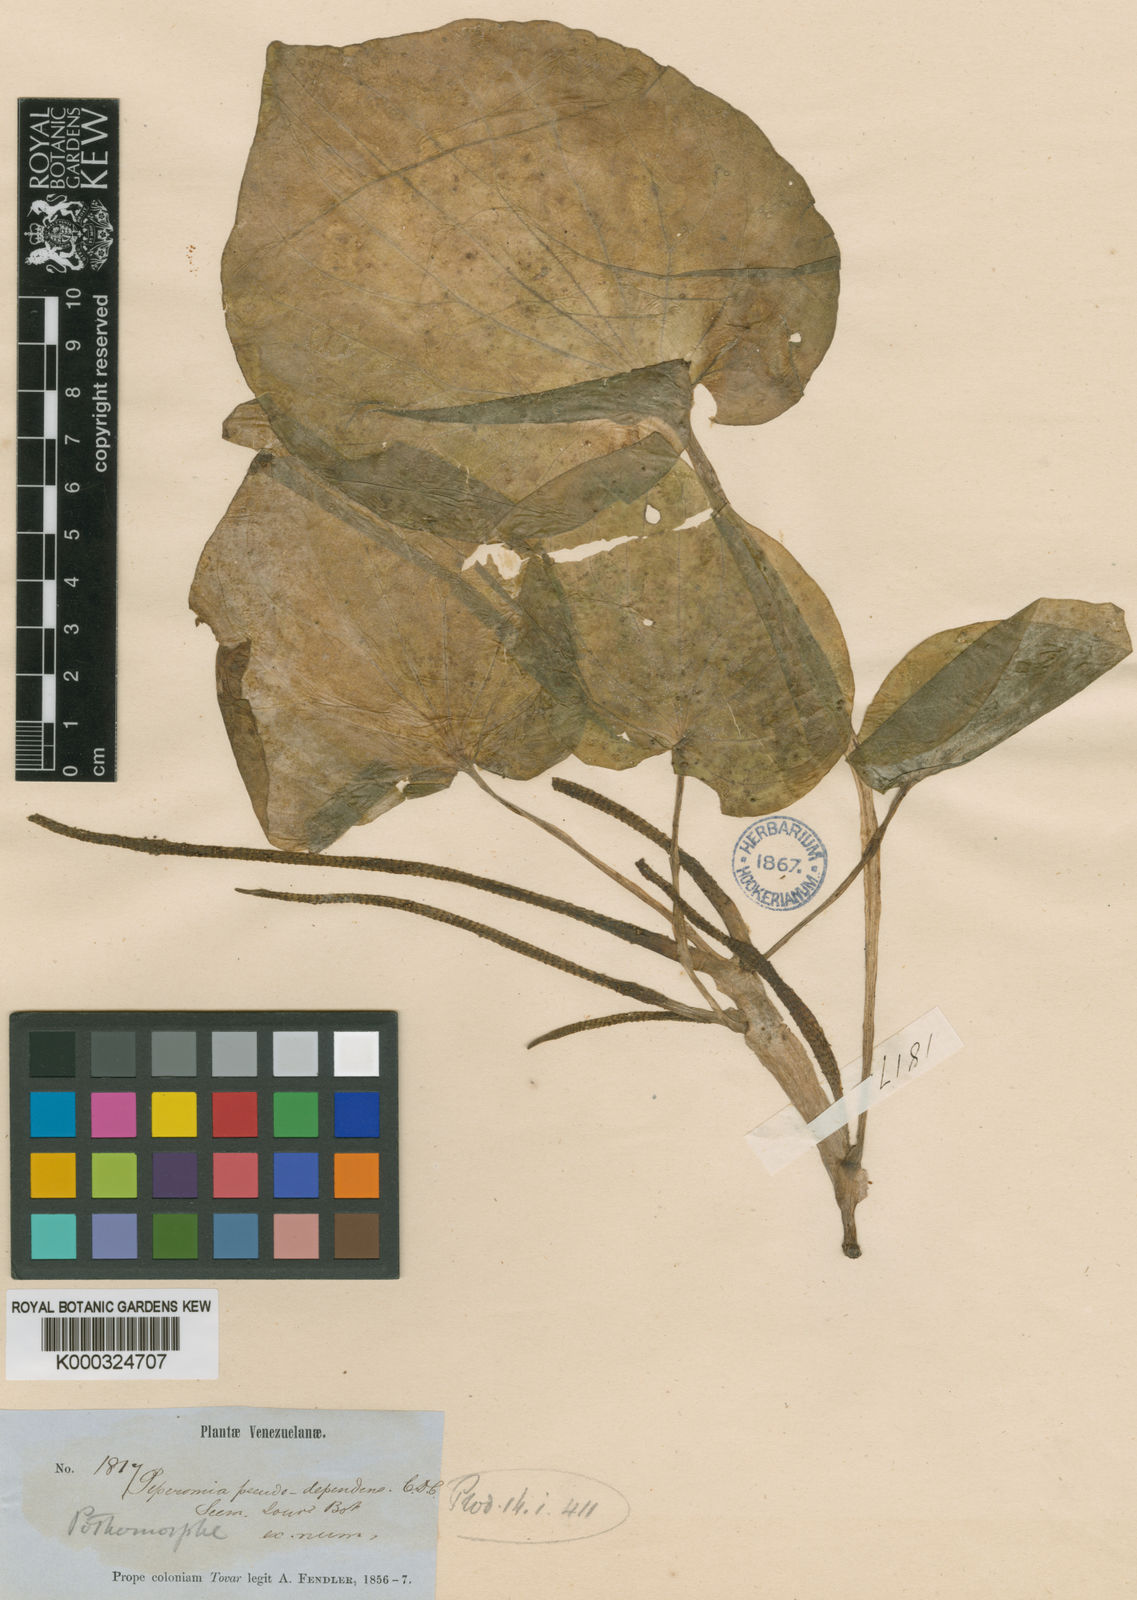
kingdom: Plantae
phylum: Tracheophyta
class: Magnoliopsida
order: Piperales
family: Piperaceae
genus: Peperomia
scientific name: Peperomia asarifolia
